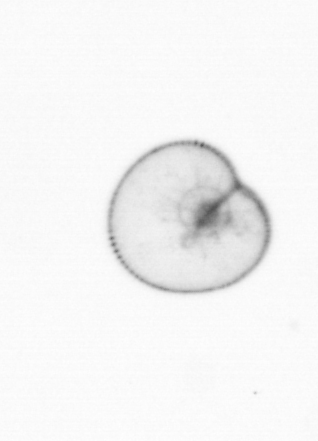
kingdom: Chromista
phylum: Myzozoa
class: Dinophyceae
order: Noctilucales
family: Noctilucaceae
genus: Noctiluca
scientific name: Noctiluca scintillans
